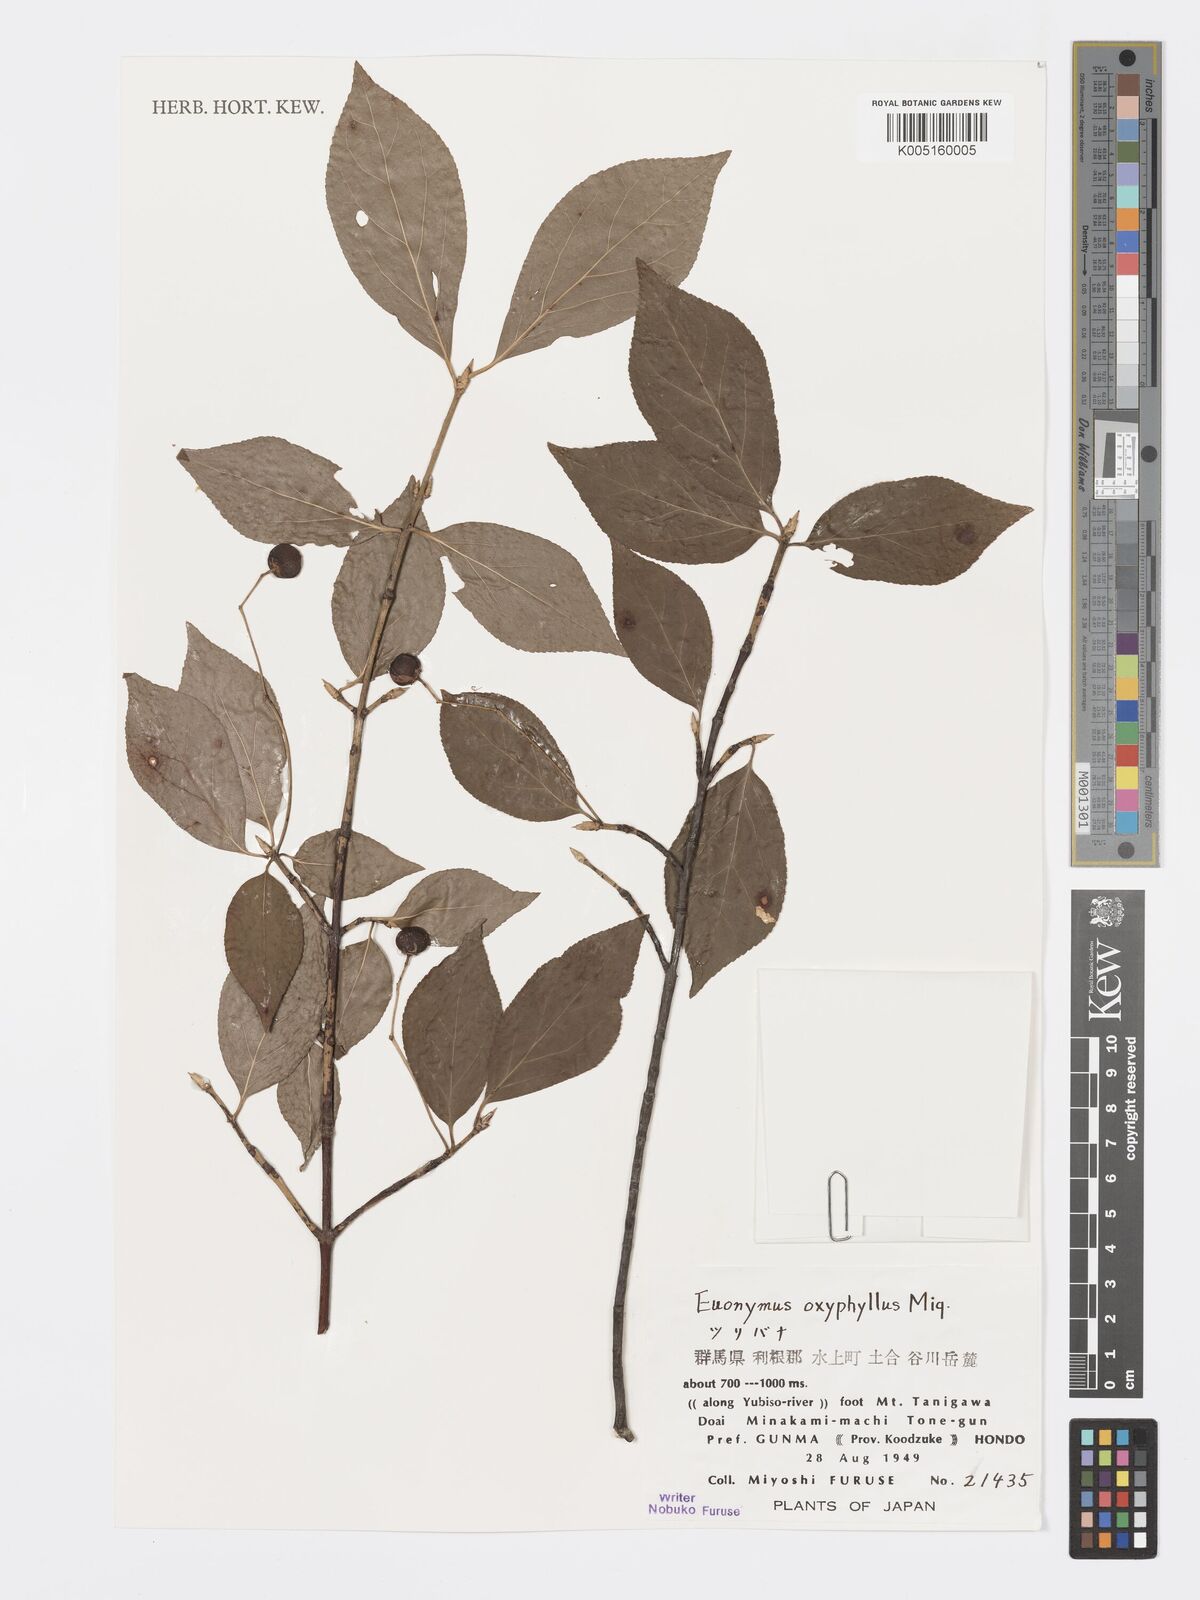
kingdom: Plantae
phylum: Tracheophyta
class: Magnoliopsida
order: Celastrales
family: Celastraceae
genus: Euonymus
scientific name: Euonymus oxyphyllus
